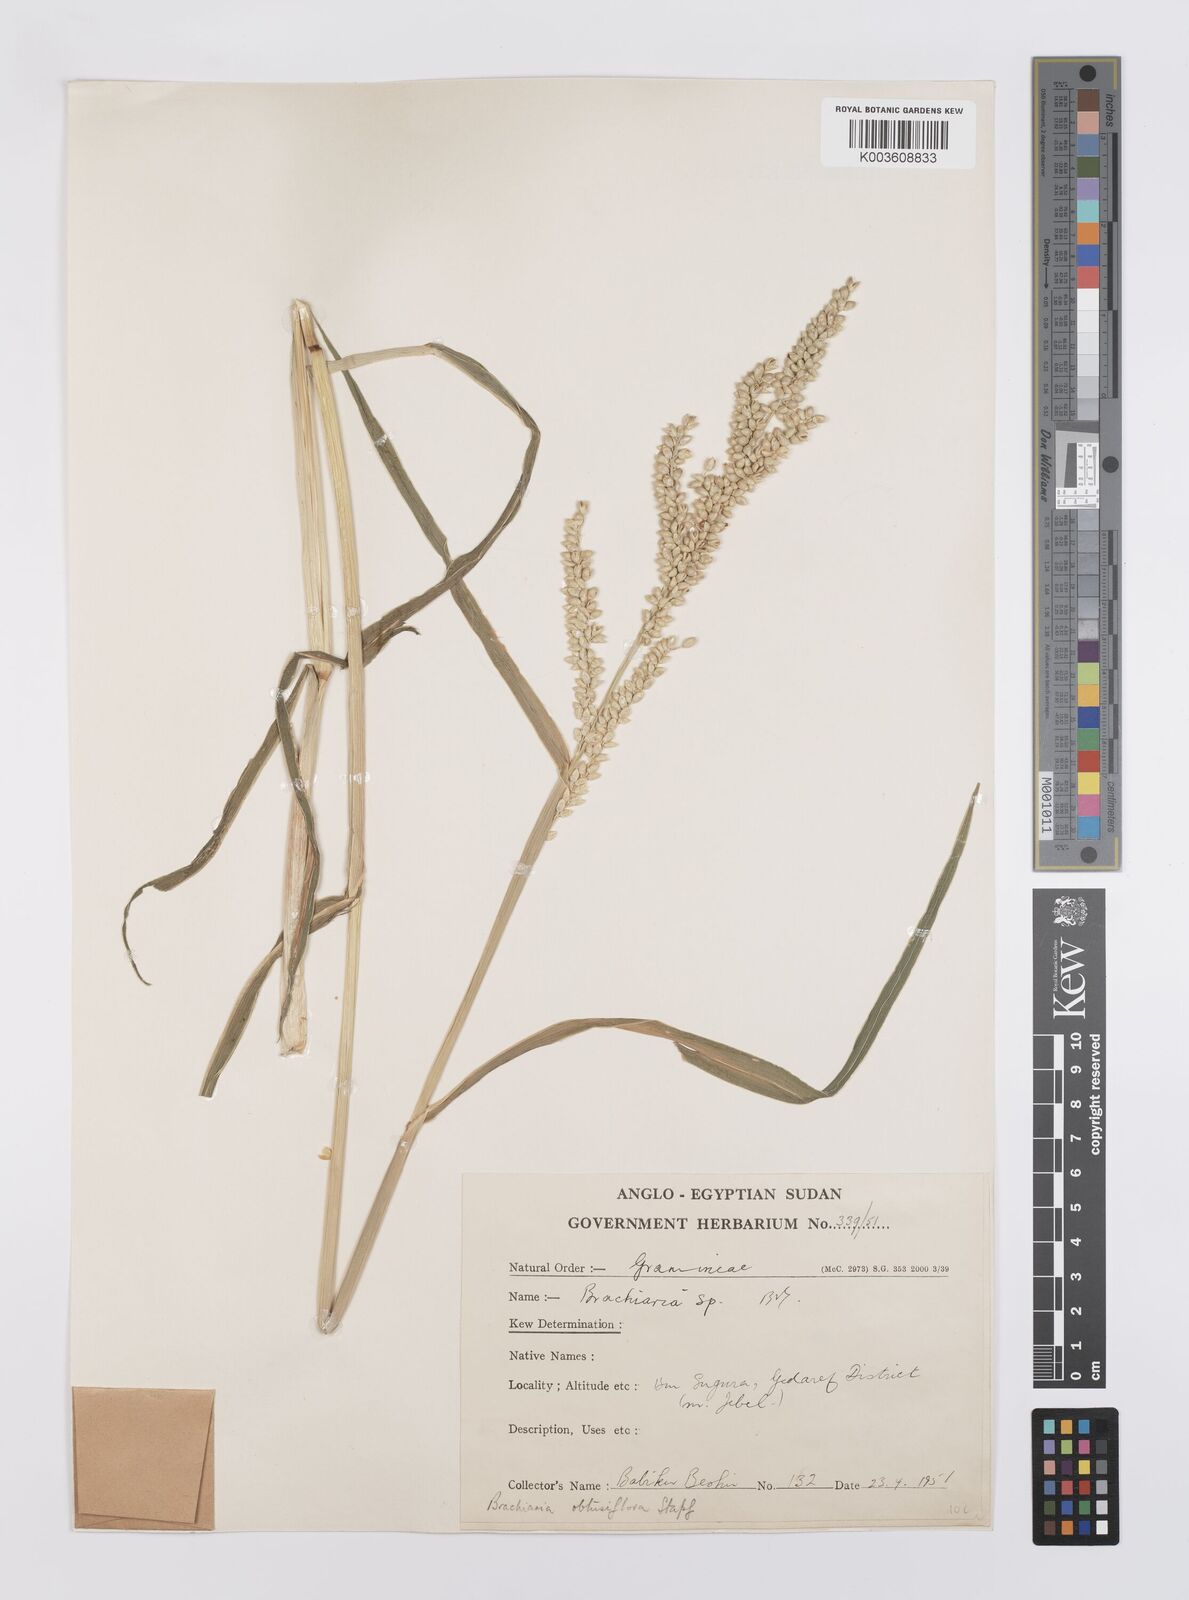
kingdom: Plantae
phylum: Tracheophyta
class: Liliopsida
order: Poales
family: Poaceae
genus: Echinochloa
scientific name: Echinochloa rotundiflora
